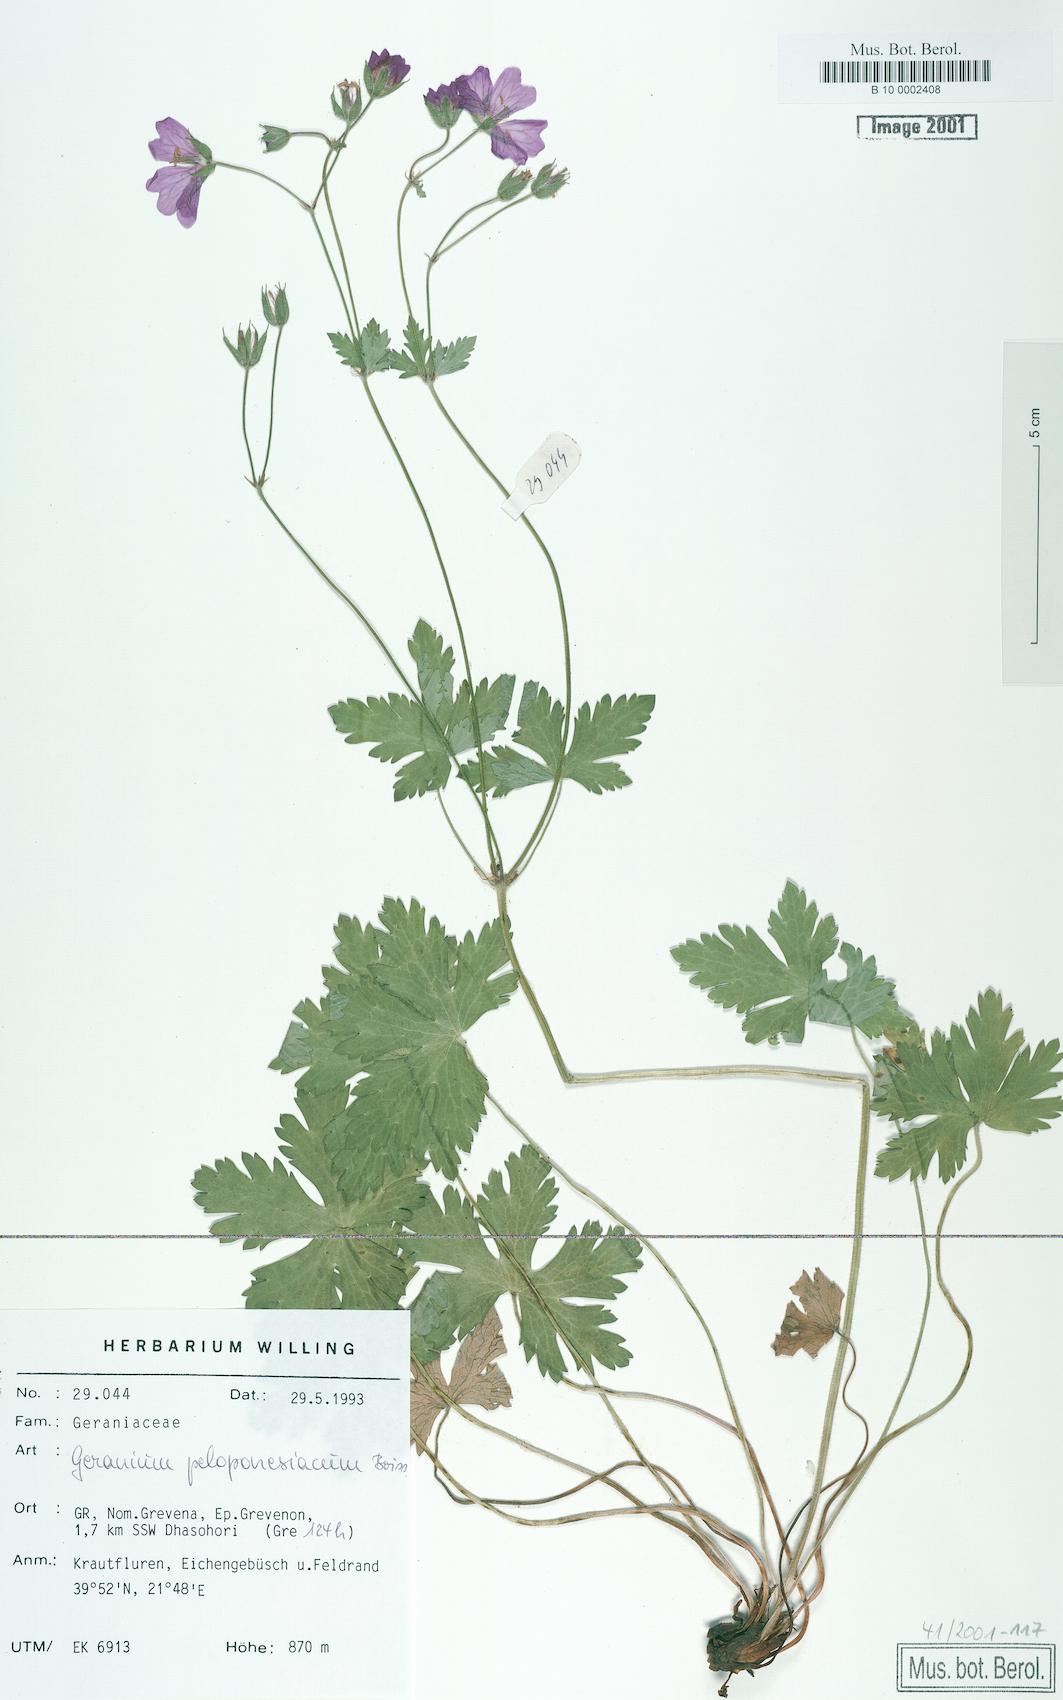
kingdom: Plantae
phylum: Tracheophyta
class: Magnoliopsida
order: Geraniales
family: Geraniaceae
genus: Geranium
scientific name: Geranium peloponnesiacum
